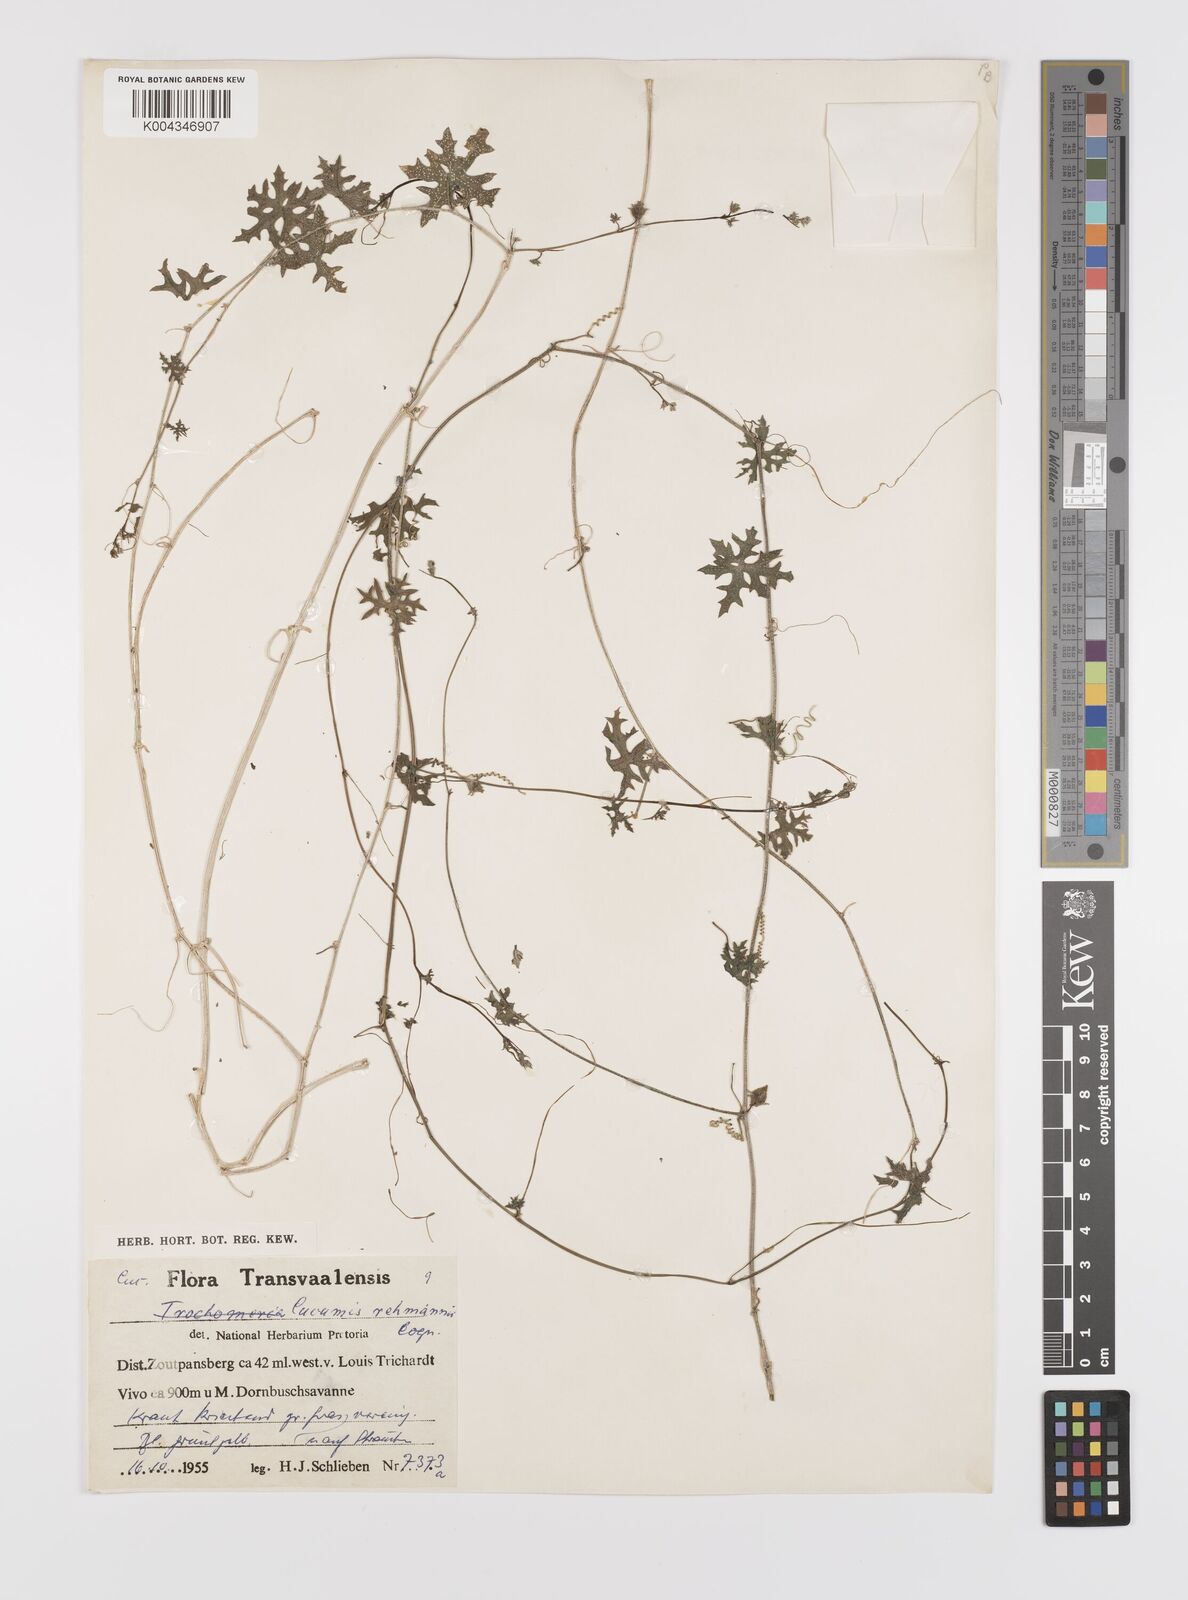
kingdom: Plantae
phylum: Tracheophyta
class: Magnoliopsida
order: Cucurbitales
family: Cucurbitaceae
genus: Coccinia
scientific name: Coccinia rehmannii
